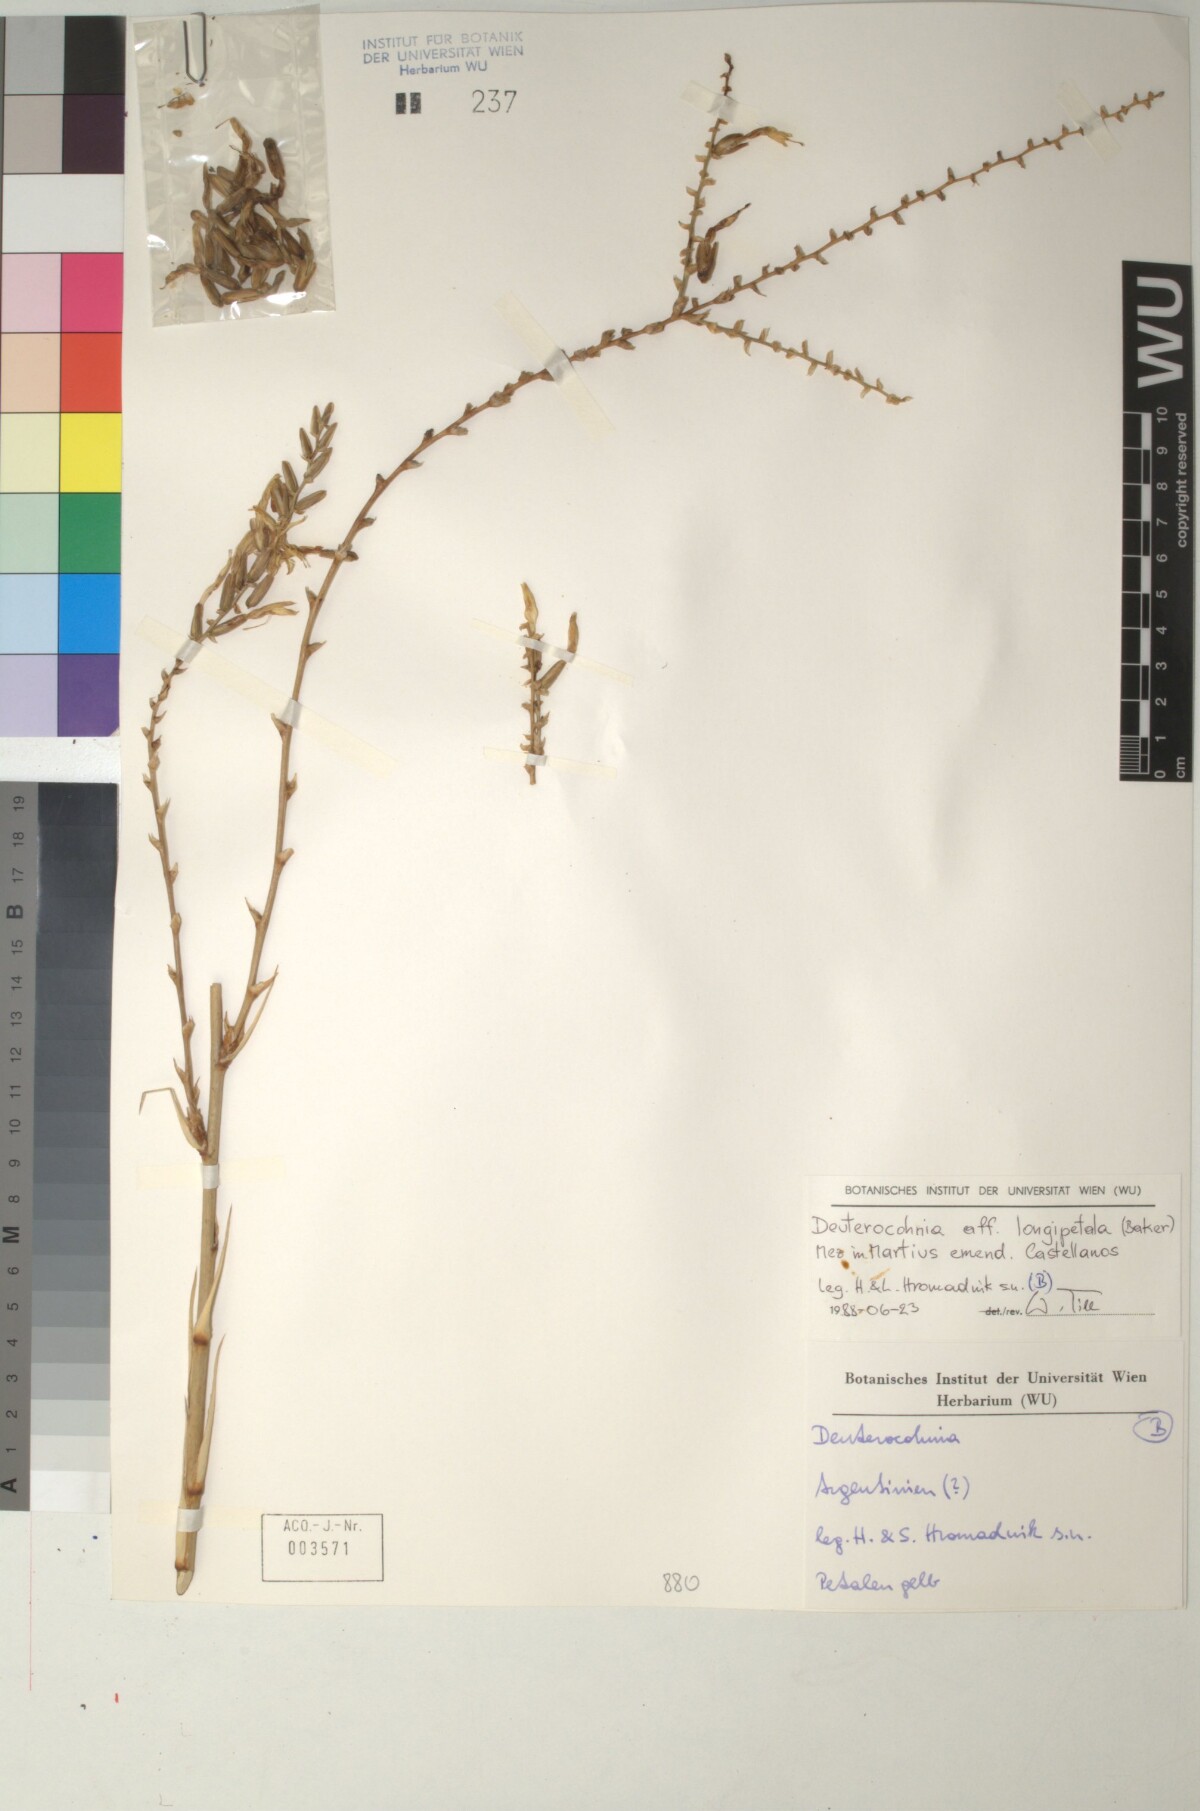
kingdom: Plantae
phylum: Tracheophyta
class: Liliopsida
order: Poales
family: Bromeliaceae
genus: Deuterocohnia
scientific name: Deuterocohnia longipetala
